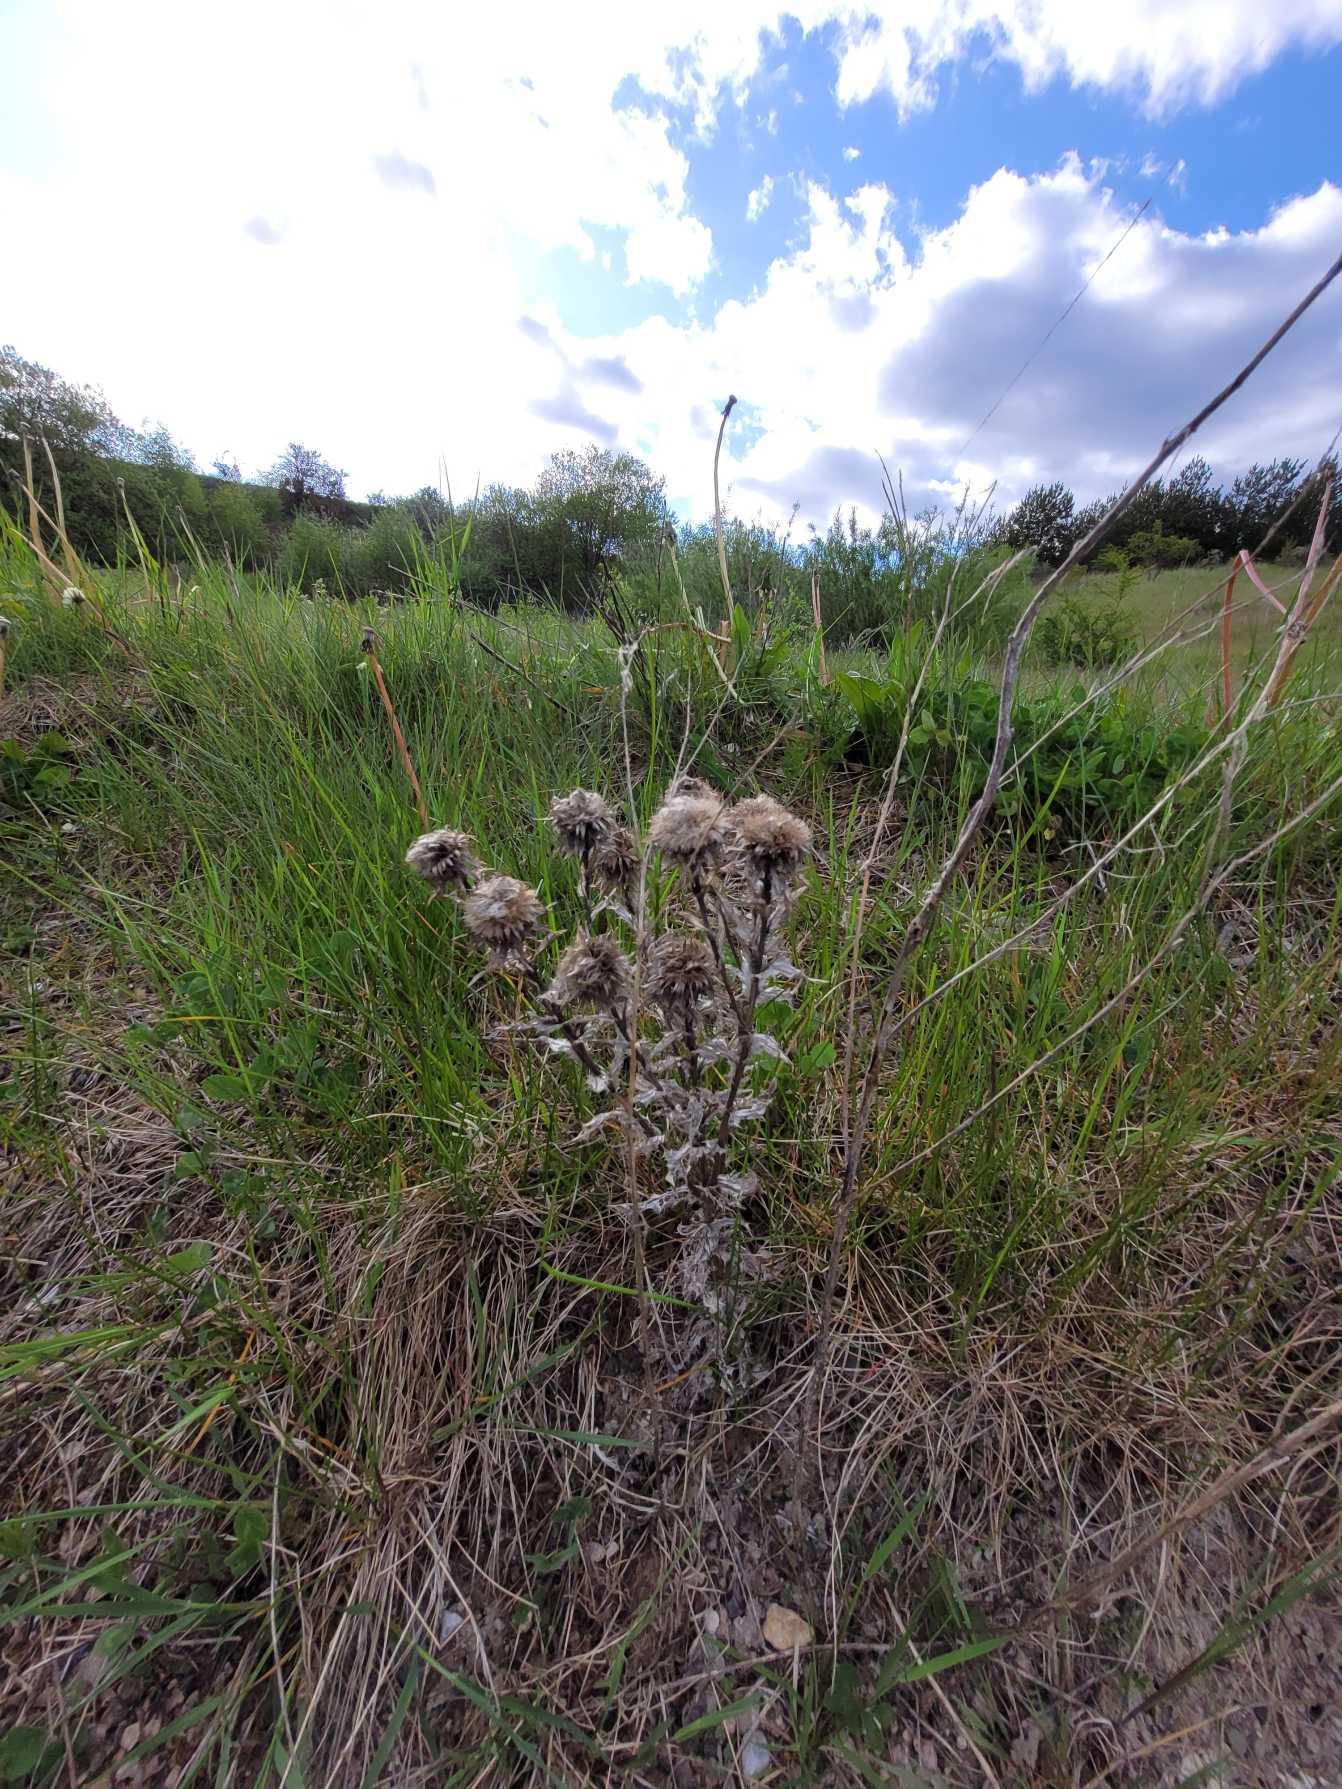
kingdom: Plantae
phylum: Tracheophyta
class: Magnoliopsida
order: Asterales
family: Asteraceae
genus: Carlina
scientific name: Carlina vulgaris
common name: Bakketidsel
